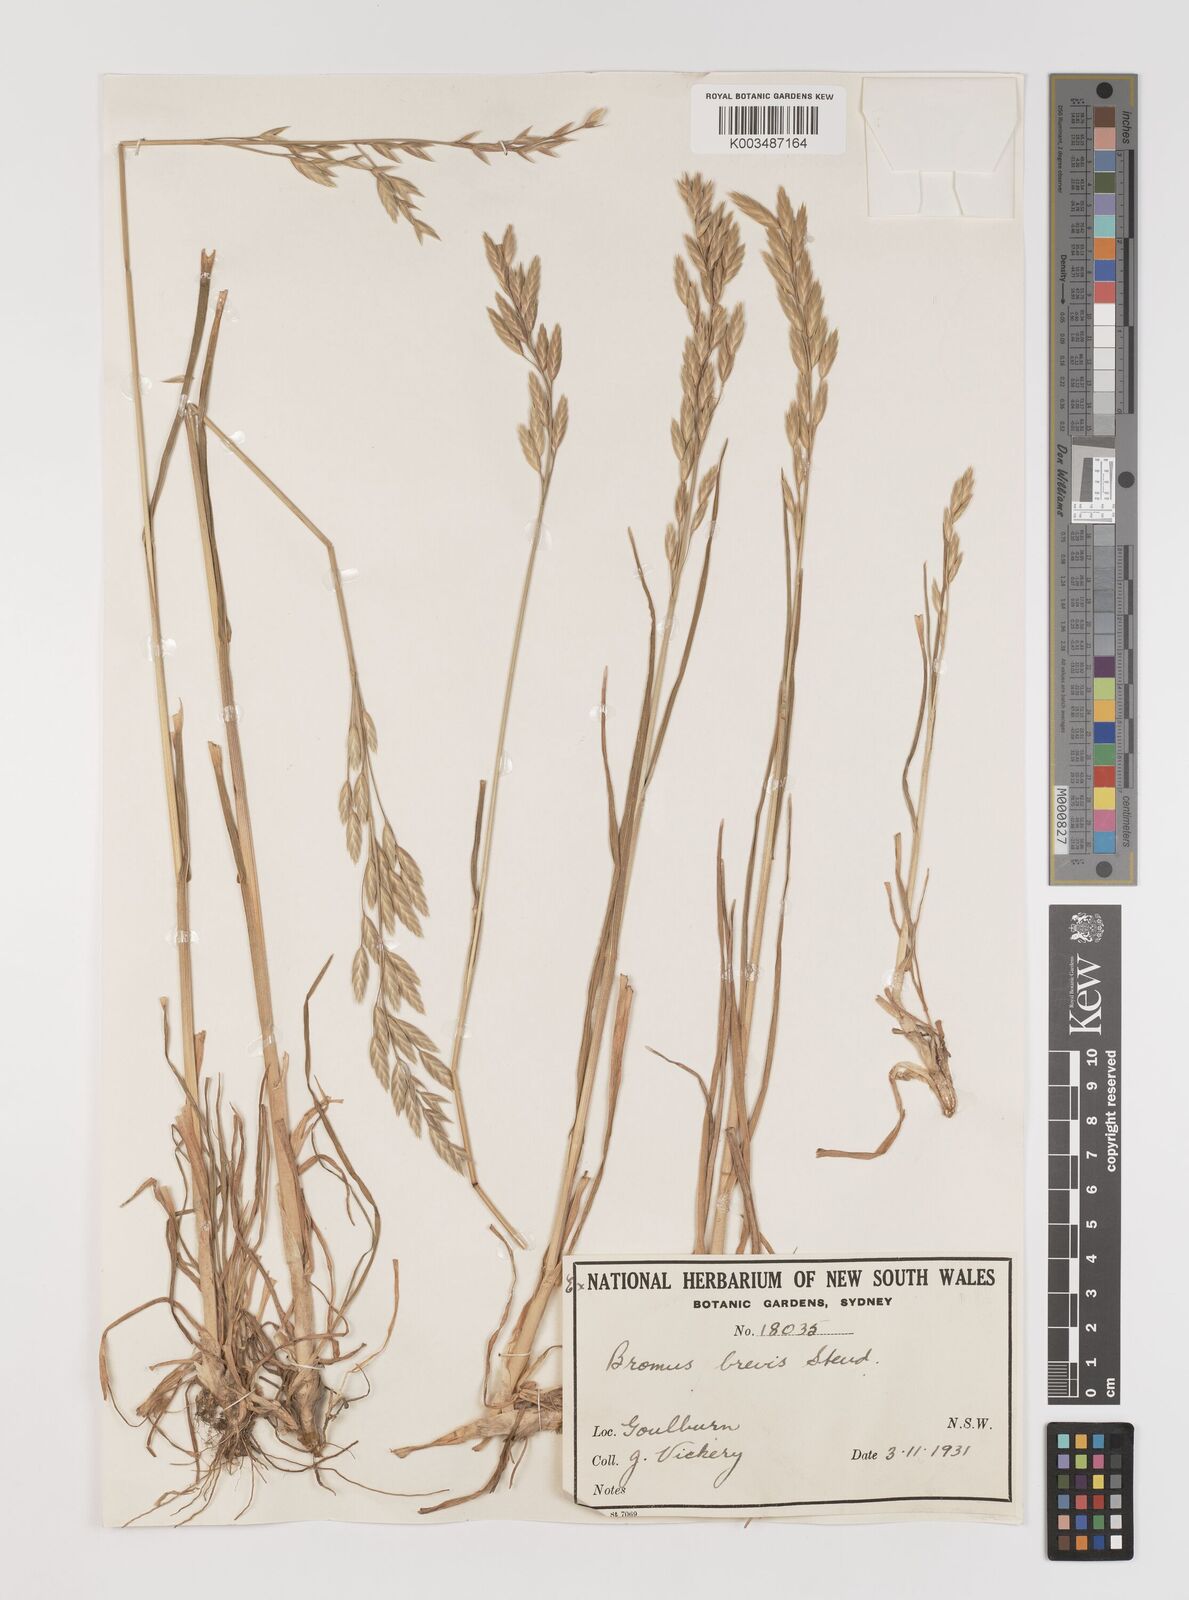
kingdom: Plantae
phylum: Tracheophyta
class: Liliopsida
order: Poales
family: Poaceae
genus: Bromus
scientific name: Bromus catharticus
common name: Rescuegrass
